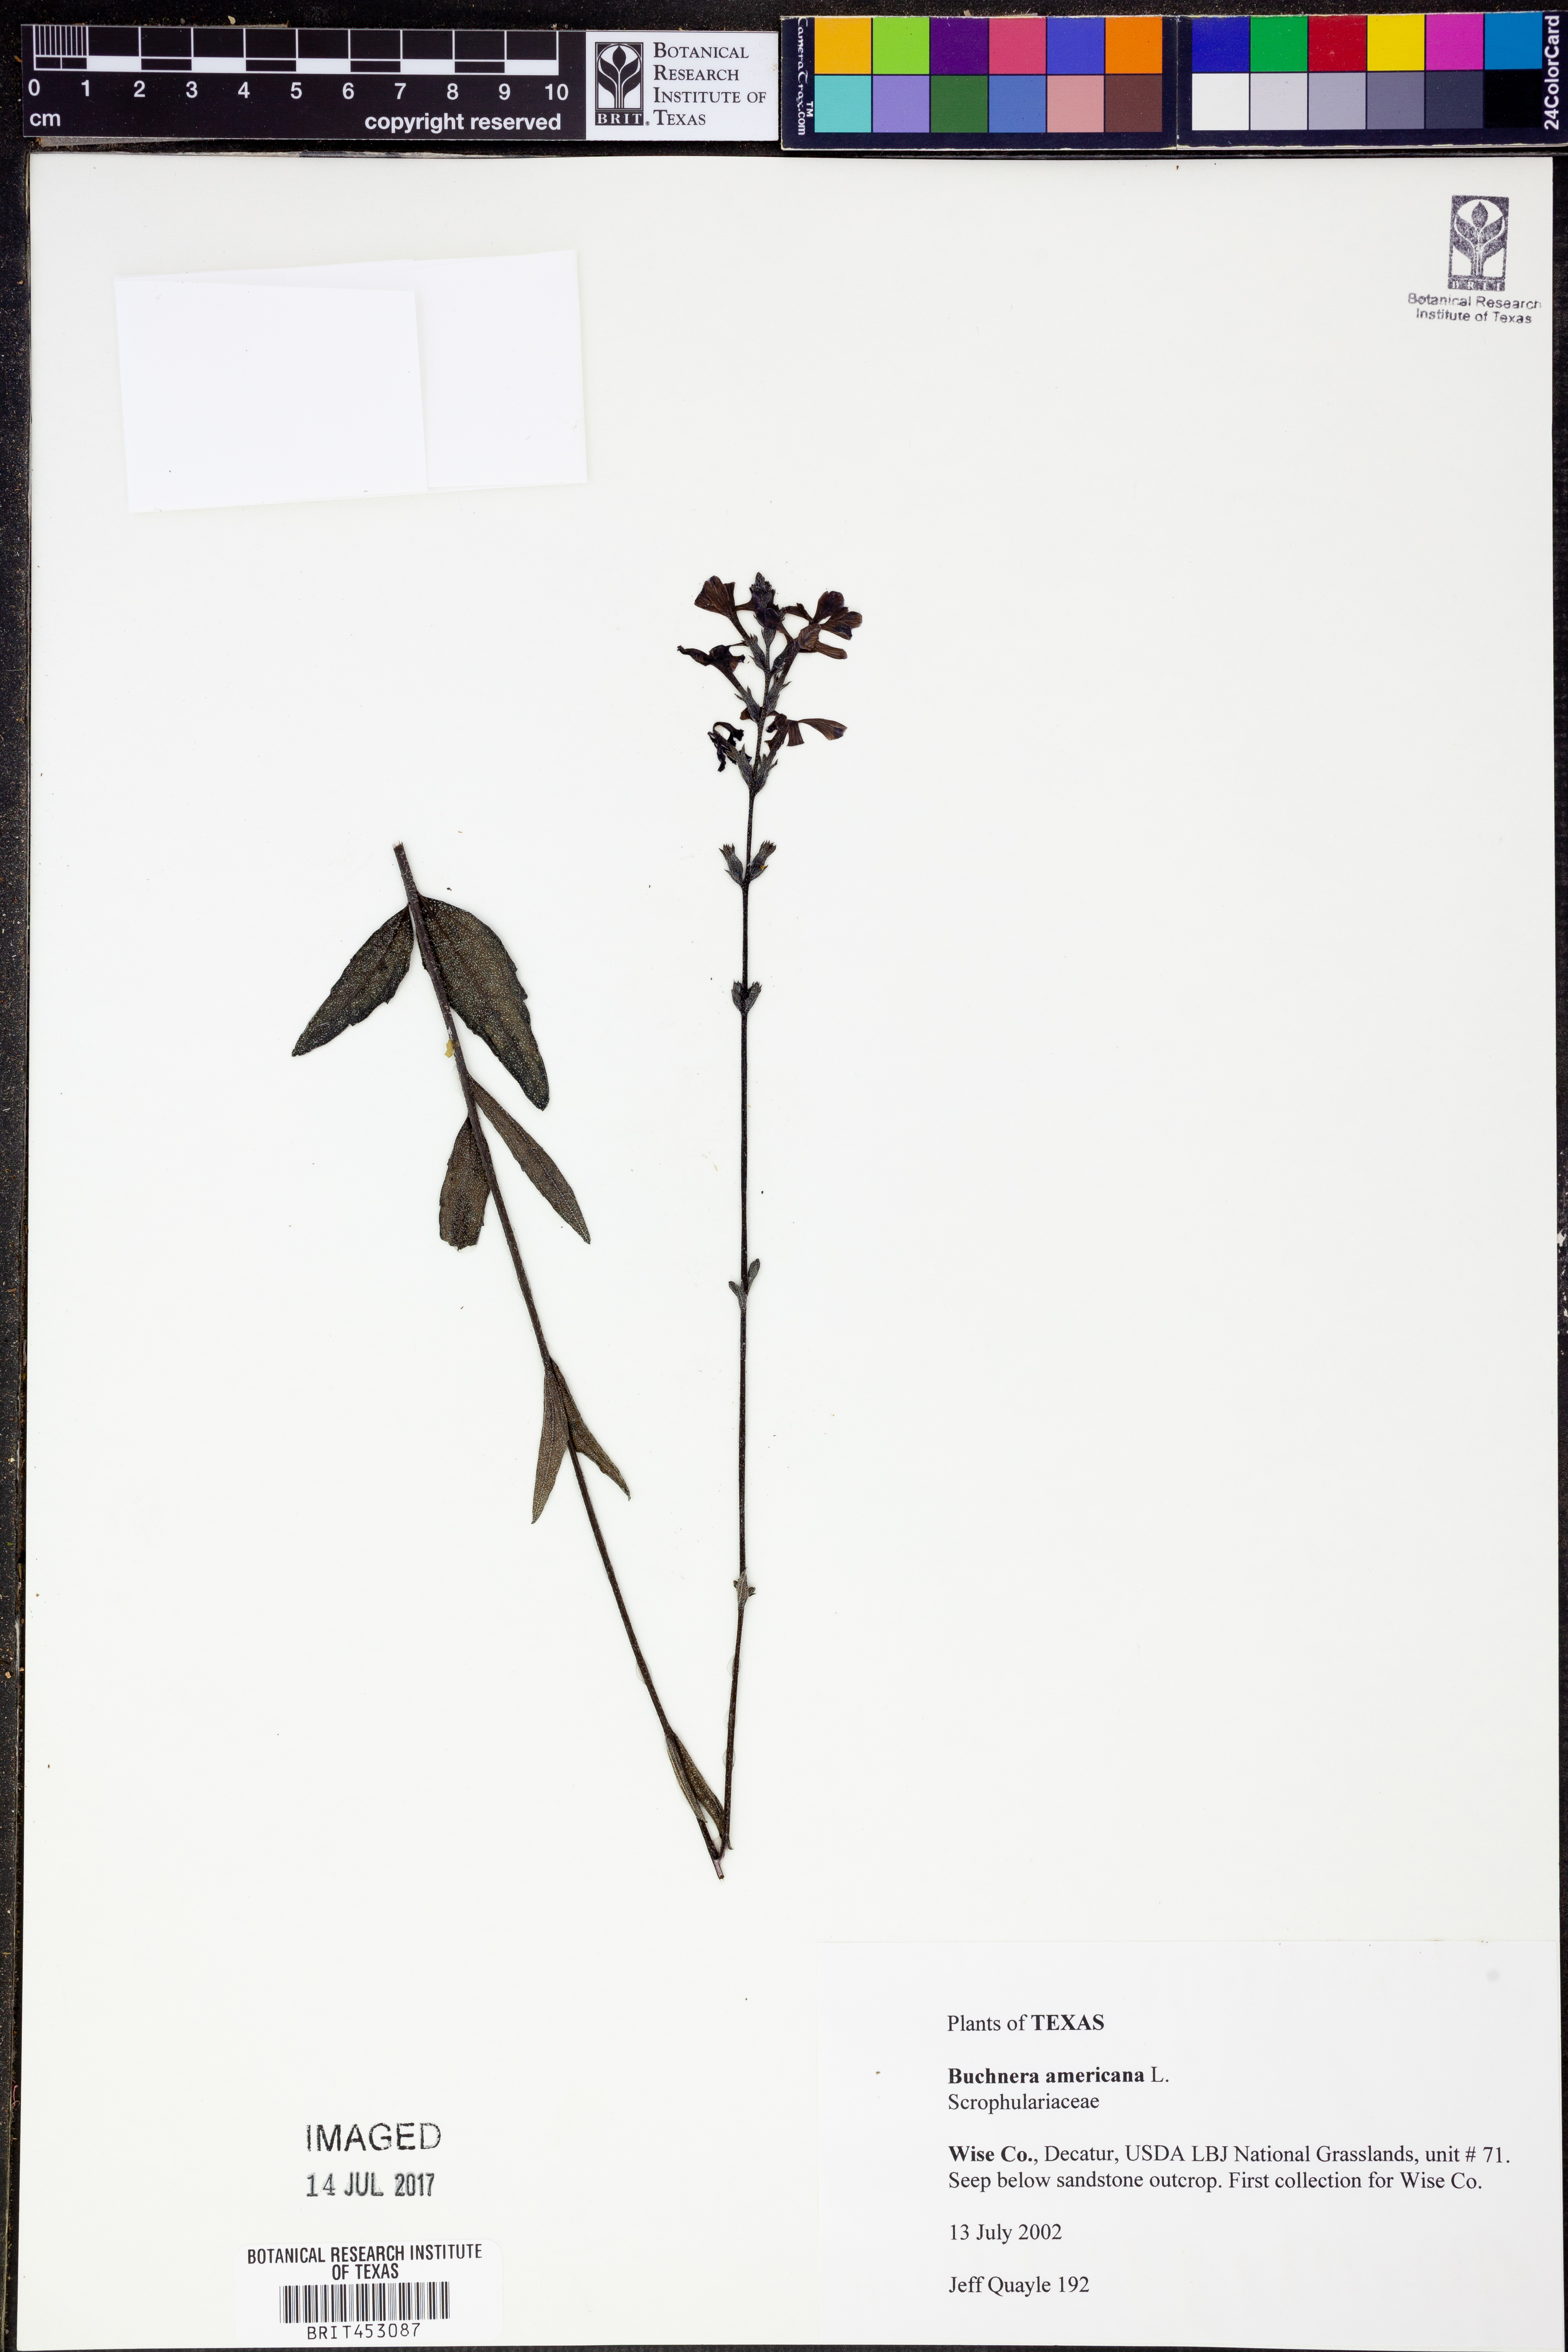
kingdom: Plantae
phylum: Tracheophyta
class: Magnoliopsida
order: Lamiales
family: Orobanchaceae
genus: Buchnera
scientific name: Buchnera americana
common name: American bluehearts
